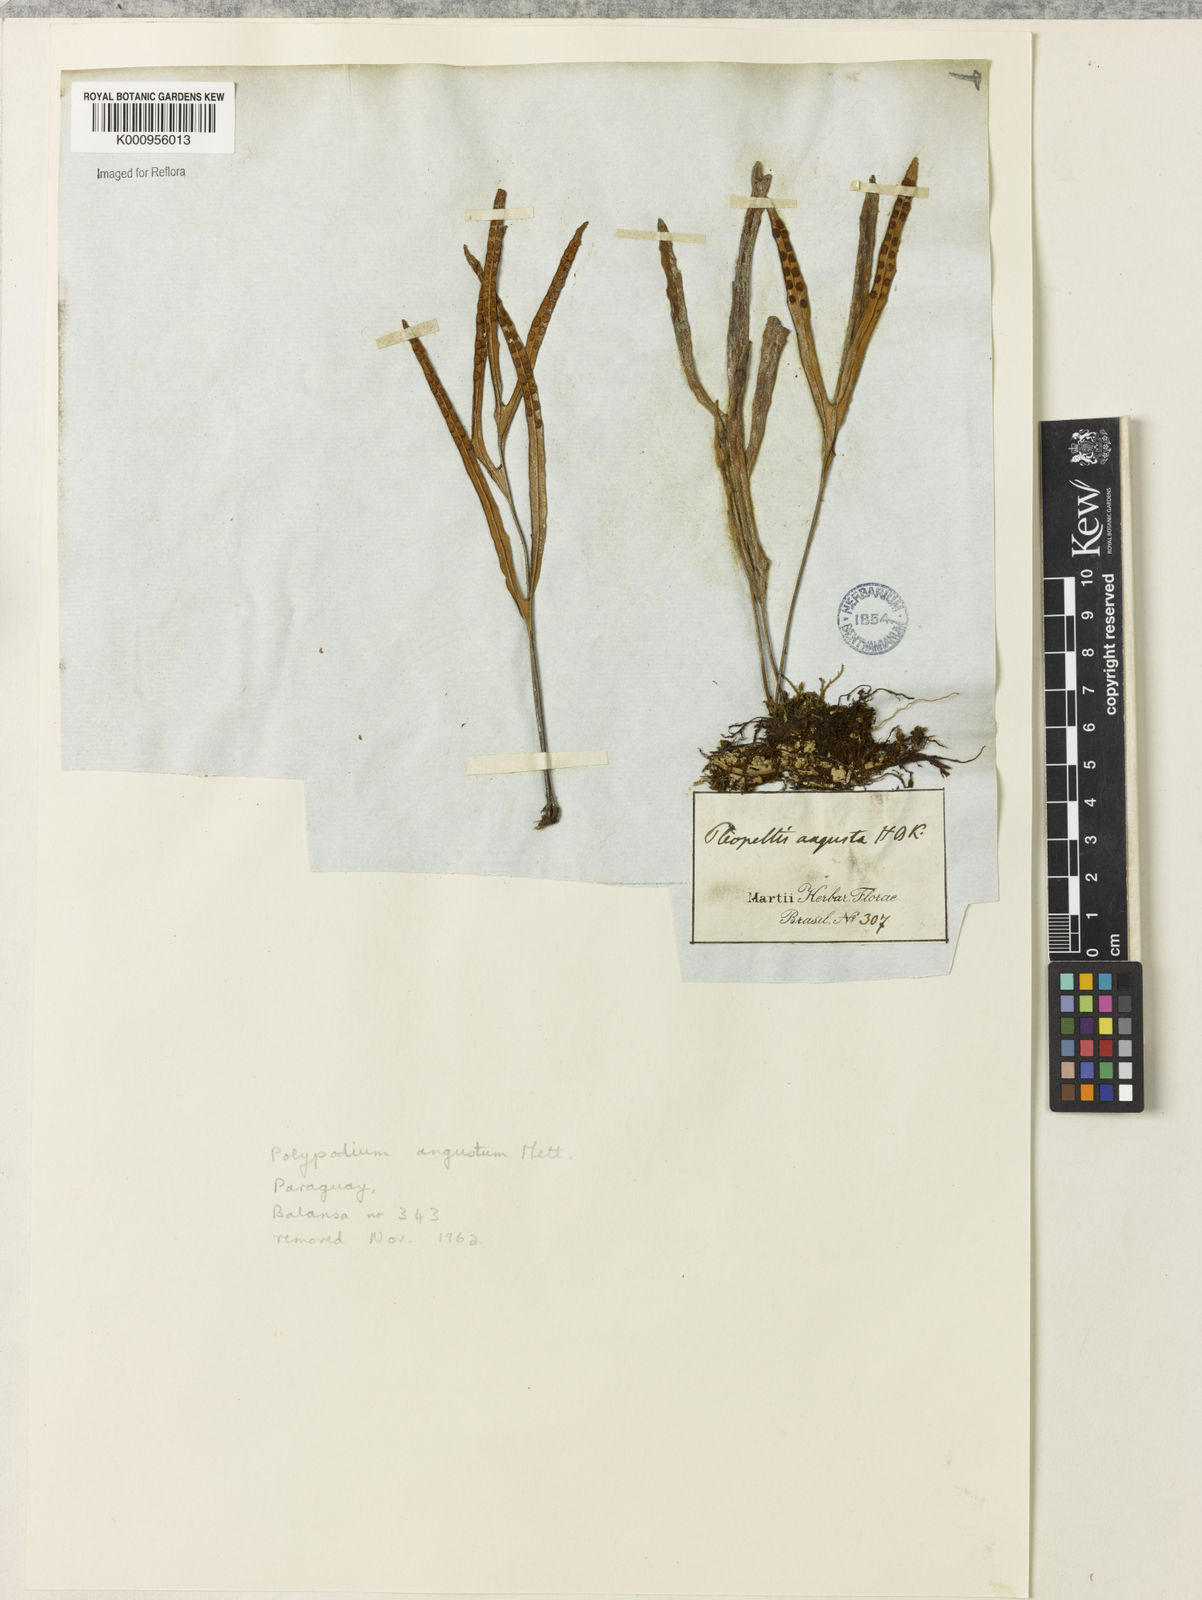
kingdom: Plantae
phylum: Tracheophyta
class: Polypodiopsida
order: Polypodiales
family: Polypodiaceae
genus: Pleopeltis
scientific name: Pleopeltis angusta
